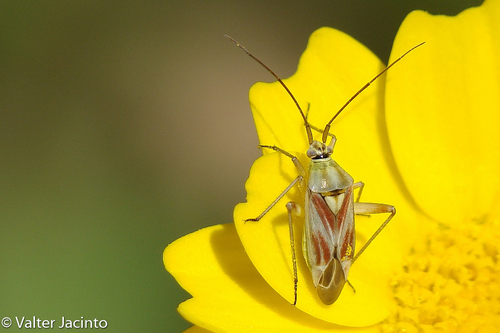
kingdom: Animalia
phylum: Arthropoda
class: Insecta
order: Hemiptera
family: Miridae
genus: Calocoris
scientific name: Calocoris roseomaculatus
